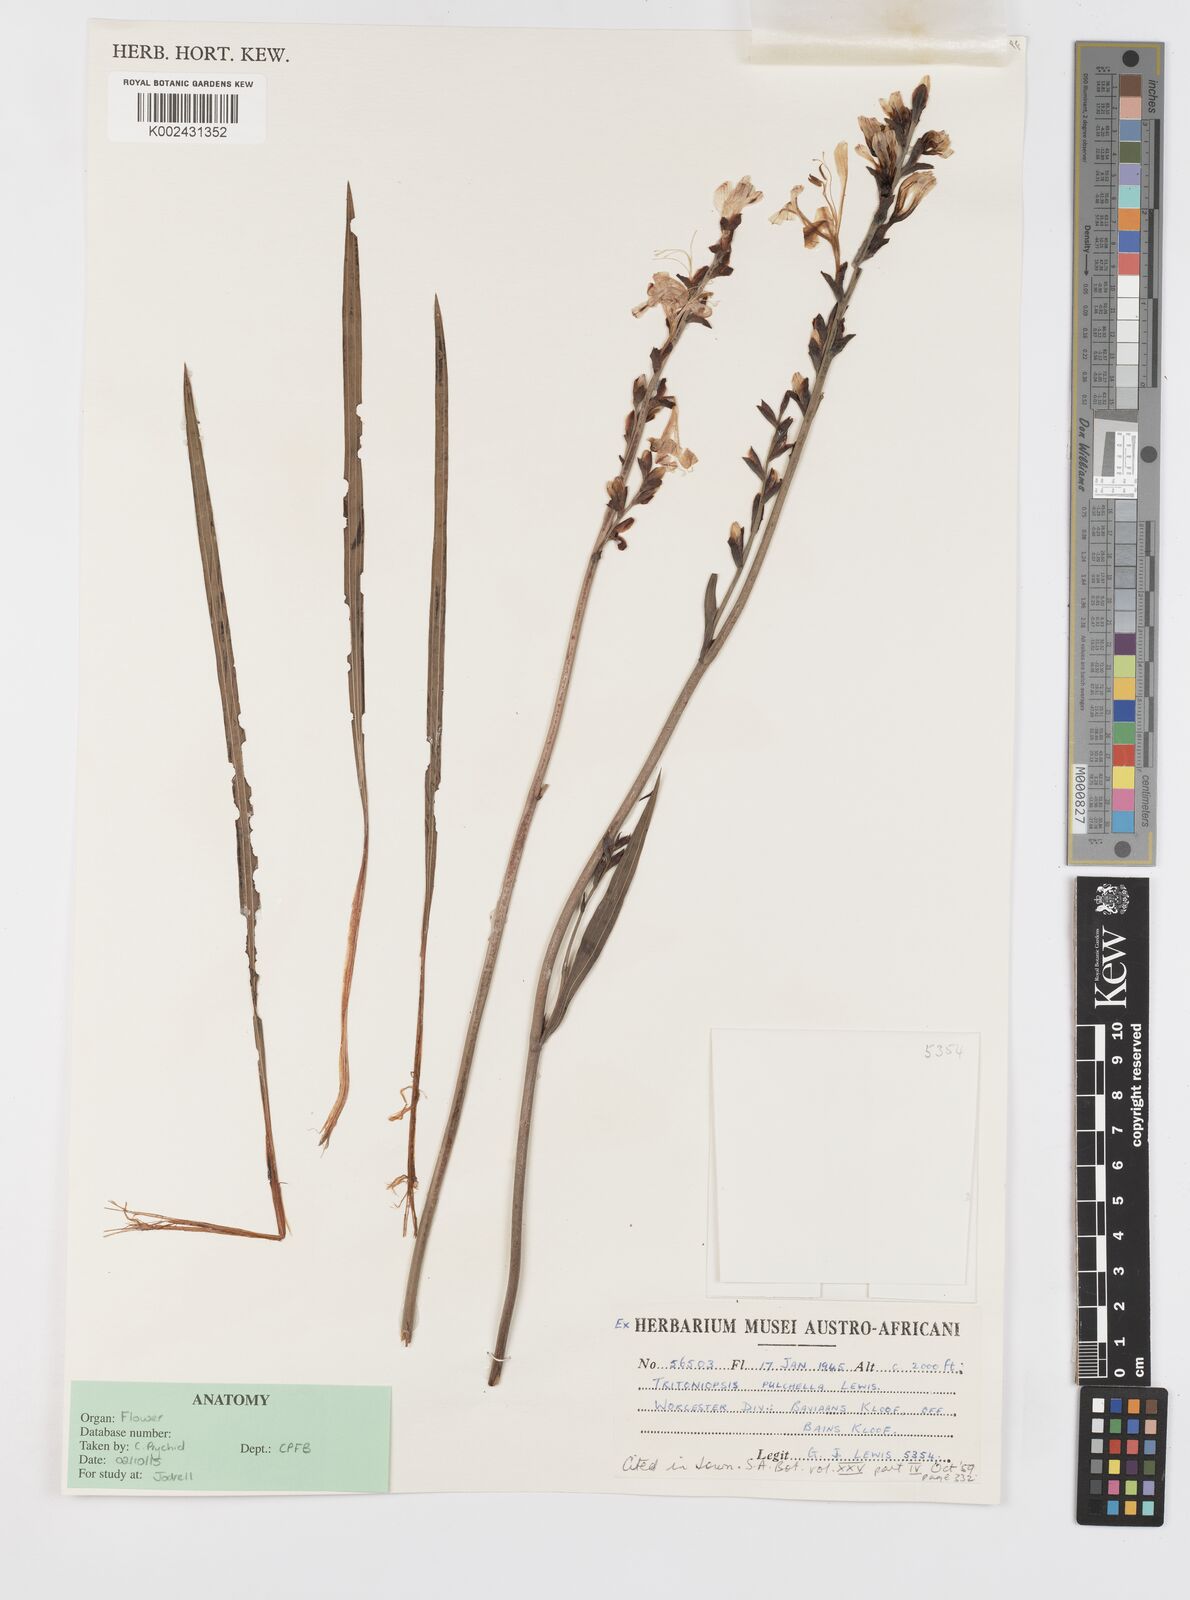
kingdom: Plantae
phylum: Tracheophyta
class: Liliopsida
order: Asparagales
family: Iridaceae
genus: Tritoniopsis
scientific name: Tritoniopsis pulchella
